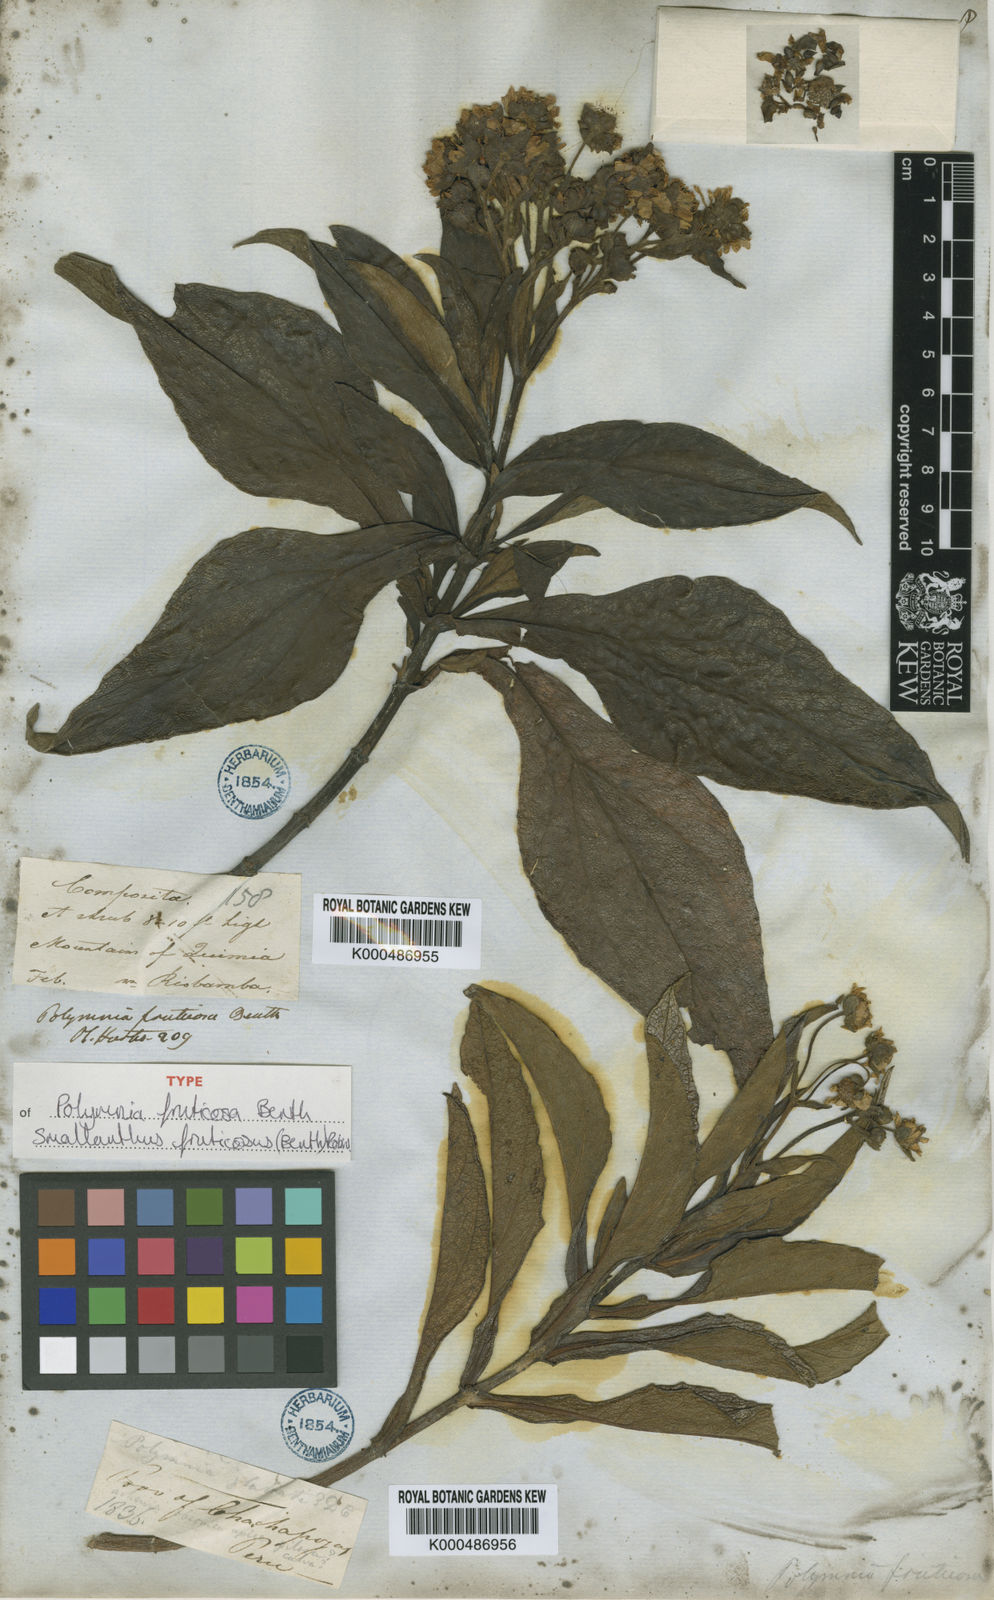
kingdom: Plantae
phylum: Tracheophyta
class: Magnoliopsida
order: Asterales
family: Asteraceae
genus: Smallanthus
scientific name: Smallanthus fruticosus
